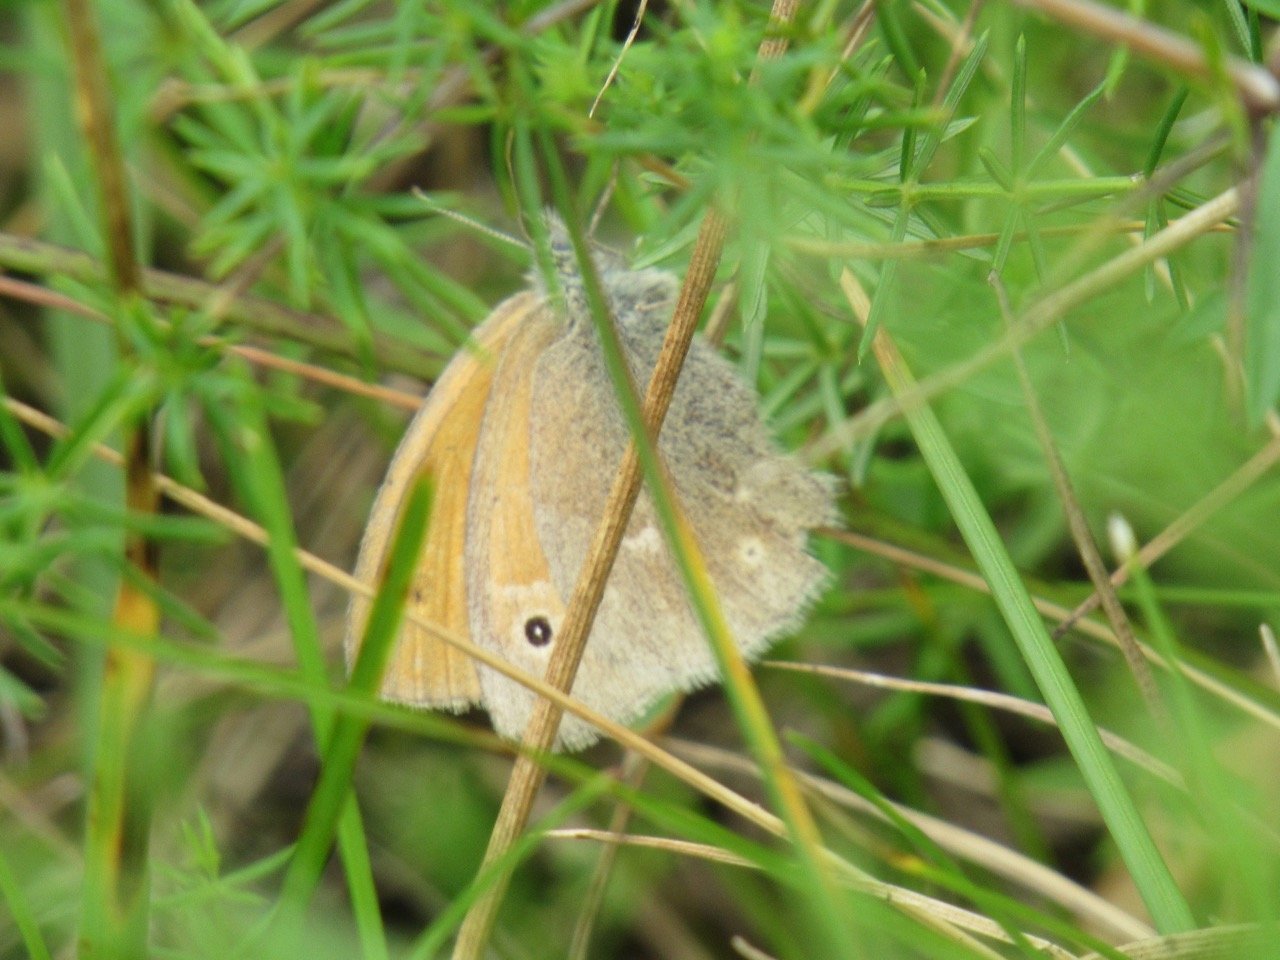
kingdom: Animalia
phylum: Arthropoda
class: Insecta
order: Lepidoptera
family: Nymphalidae
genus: Coenonympha
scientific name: Coenonympha tullia
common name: Large Heath
